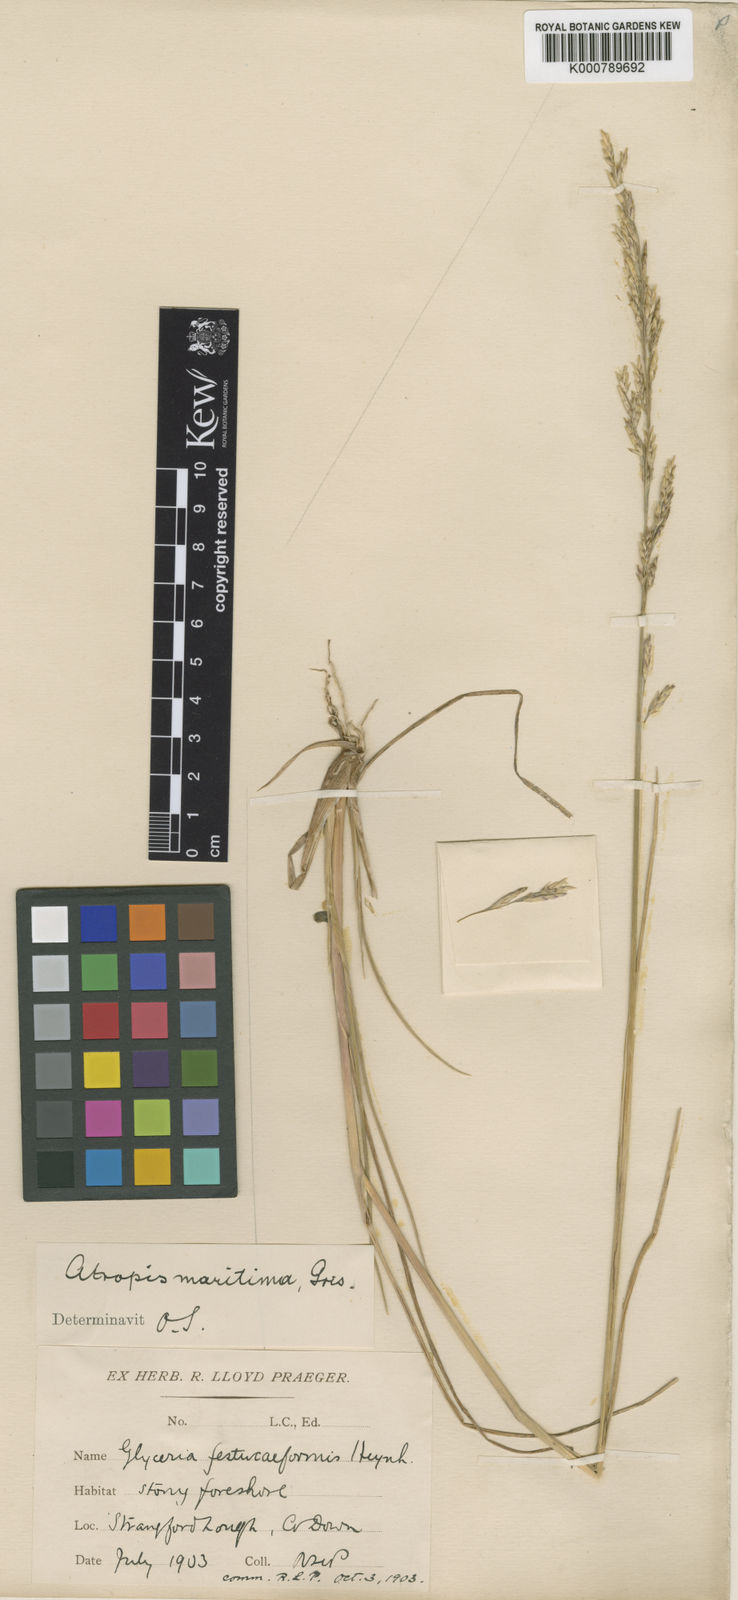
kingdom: Plantae
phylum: Tracheophyta
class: Liliopsida
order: Poales
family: Poaceae
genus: Puccinellia
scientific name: Puccinellia maritima
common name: Common saltmarsh grass
